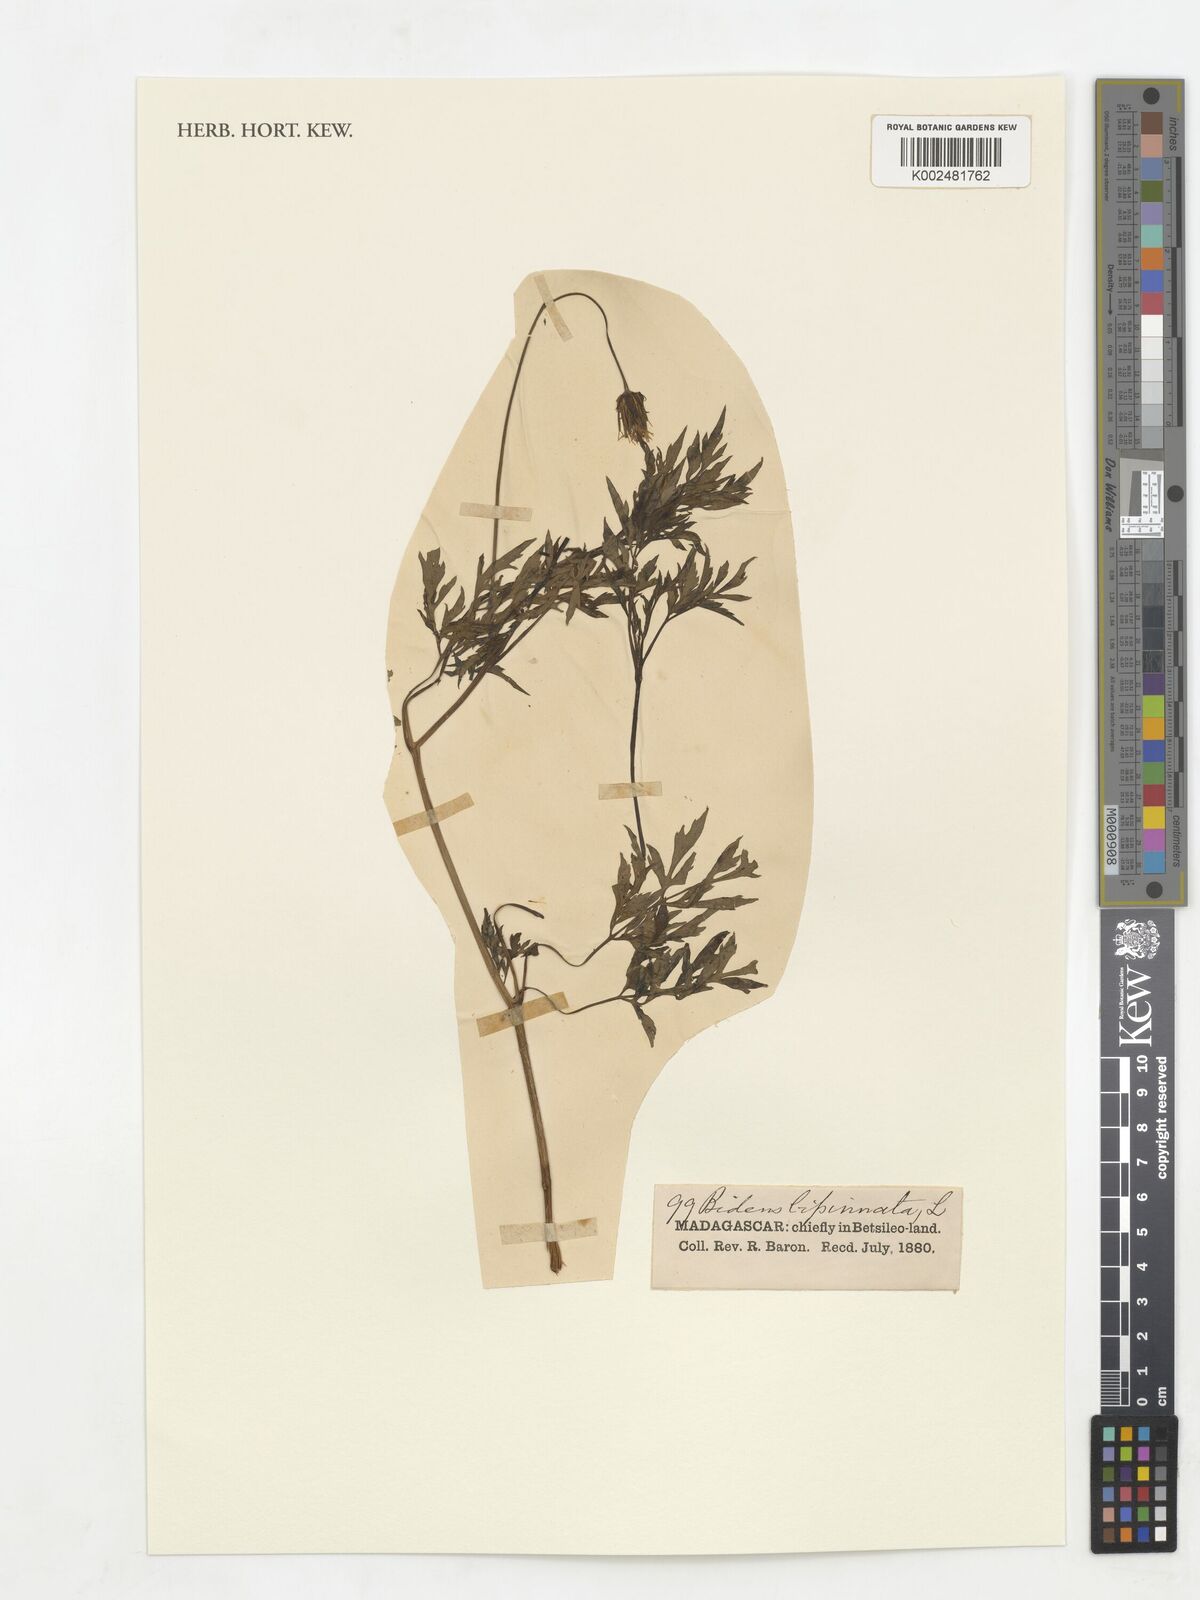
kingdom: Plantae
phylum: Tracheophyta
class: Magnoliopsida
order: Asterales
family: Asteraceae
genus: Bidens
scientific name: Bidens bipinnata
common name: Spanish-needles
